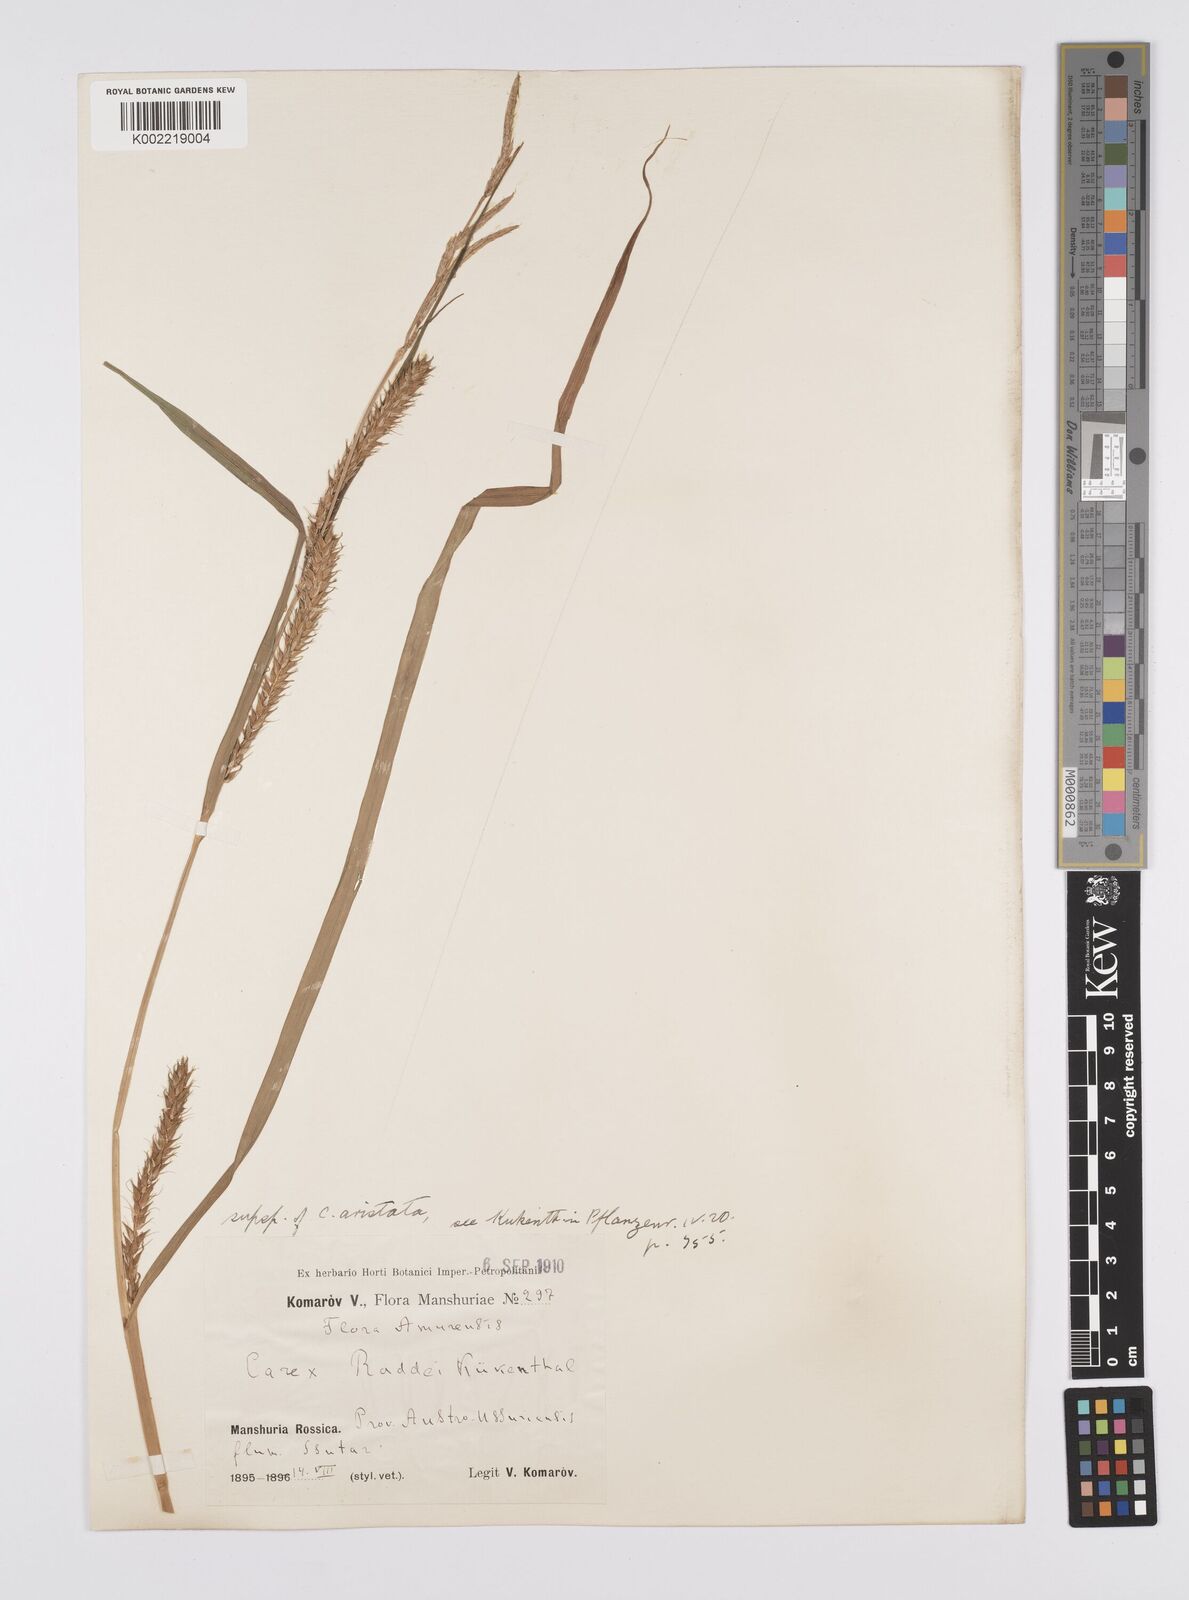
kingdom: Plantae
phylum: Tracheophyta
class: Liliopsida
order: Poales
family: Cyperaceae
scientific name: Cyperaceae
